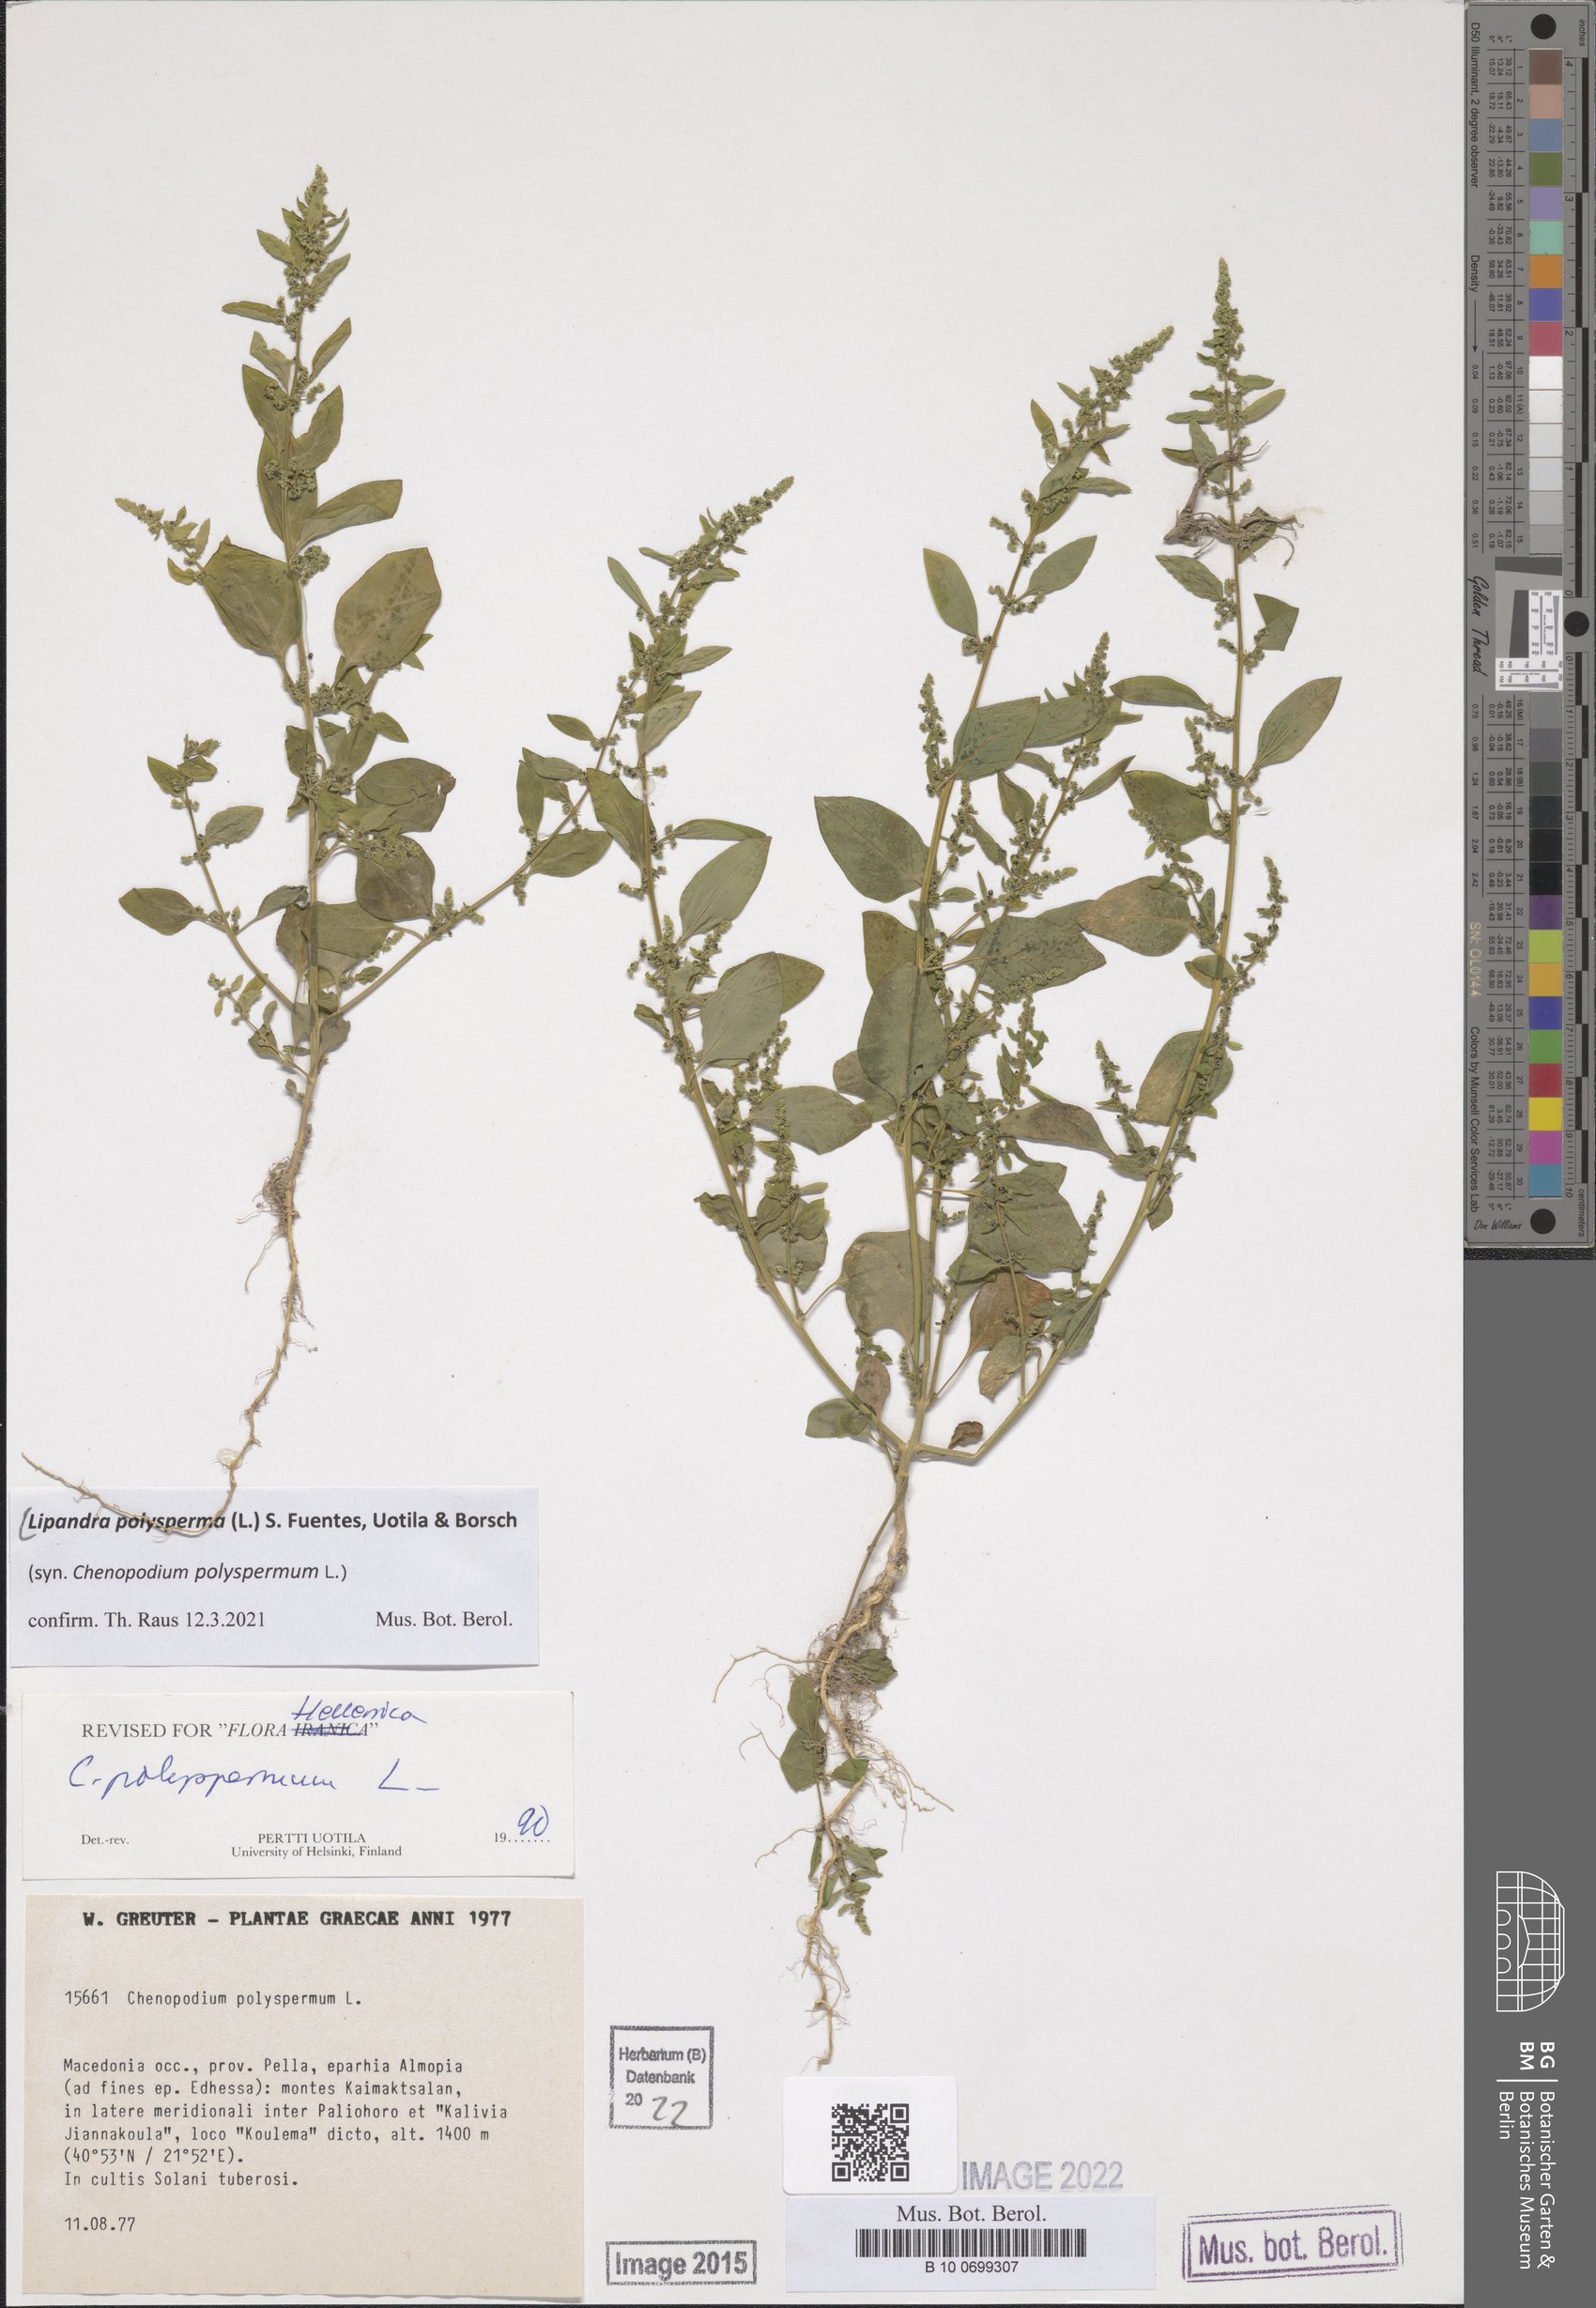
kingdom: Plantae
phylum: Tracheophyta
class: Magnoliopsida
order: Caryophyllales
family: Amaranthaceae
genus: Lipandra
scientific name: Lipandra polysperma
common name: Many-seed goosefoot
